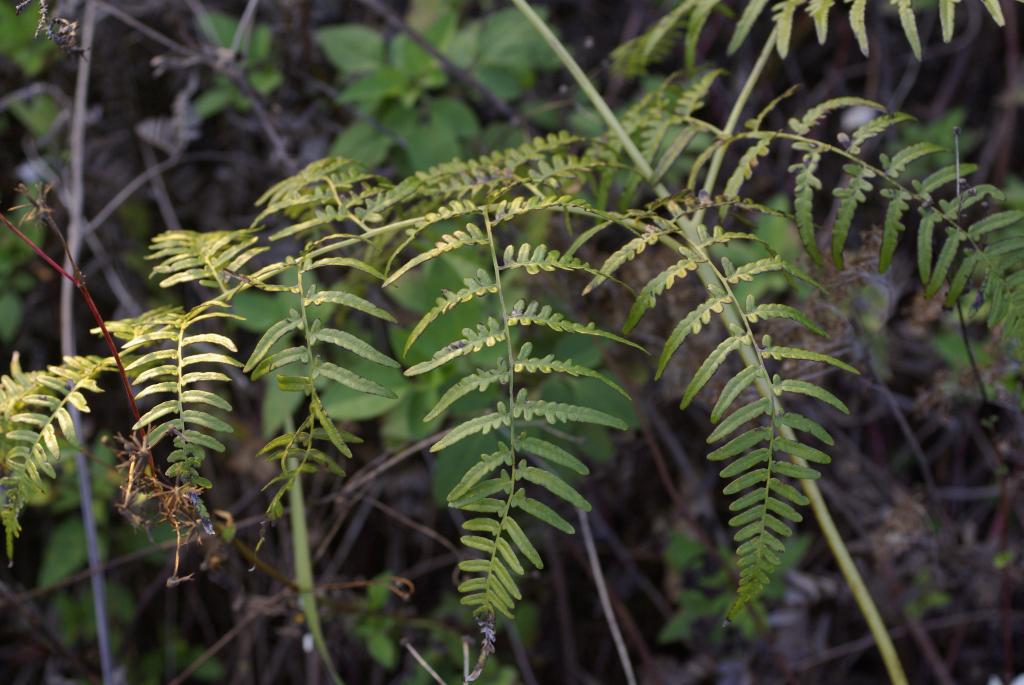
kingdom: Plantae
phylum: Tracheophyta
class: Polypodiopsida
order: Polypodiales
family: Dennstaedtiaceae
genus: Pteridium
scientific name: Pteridium aquilinum
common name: Bracken
